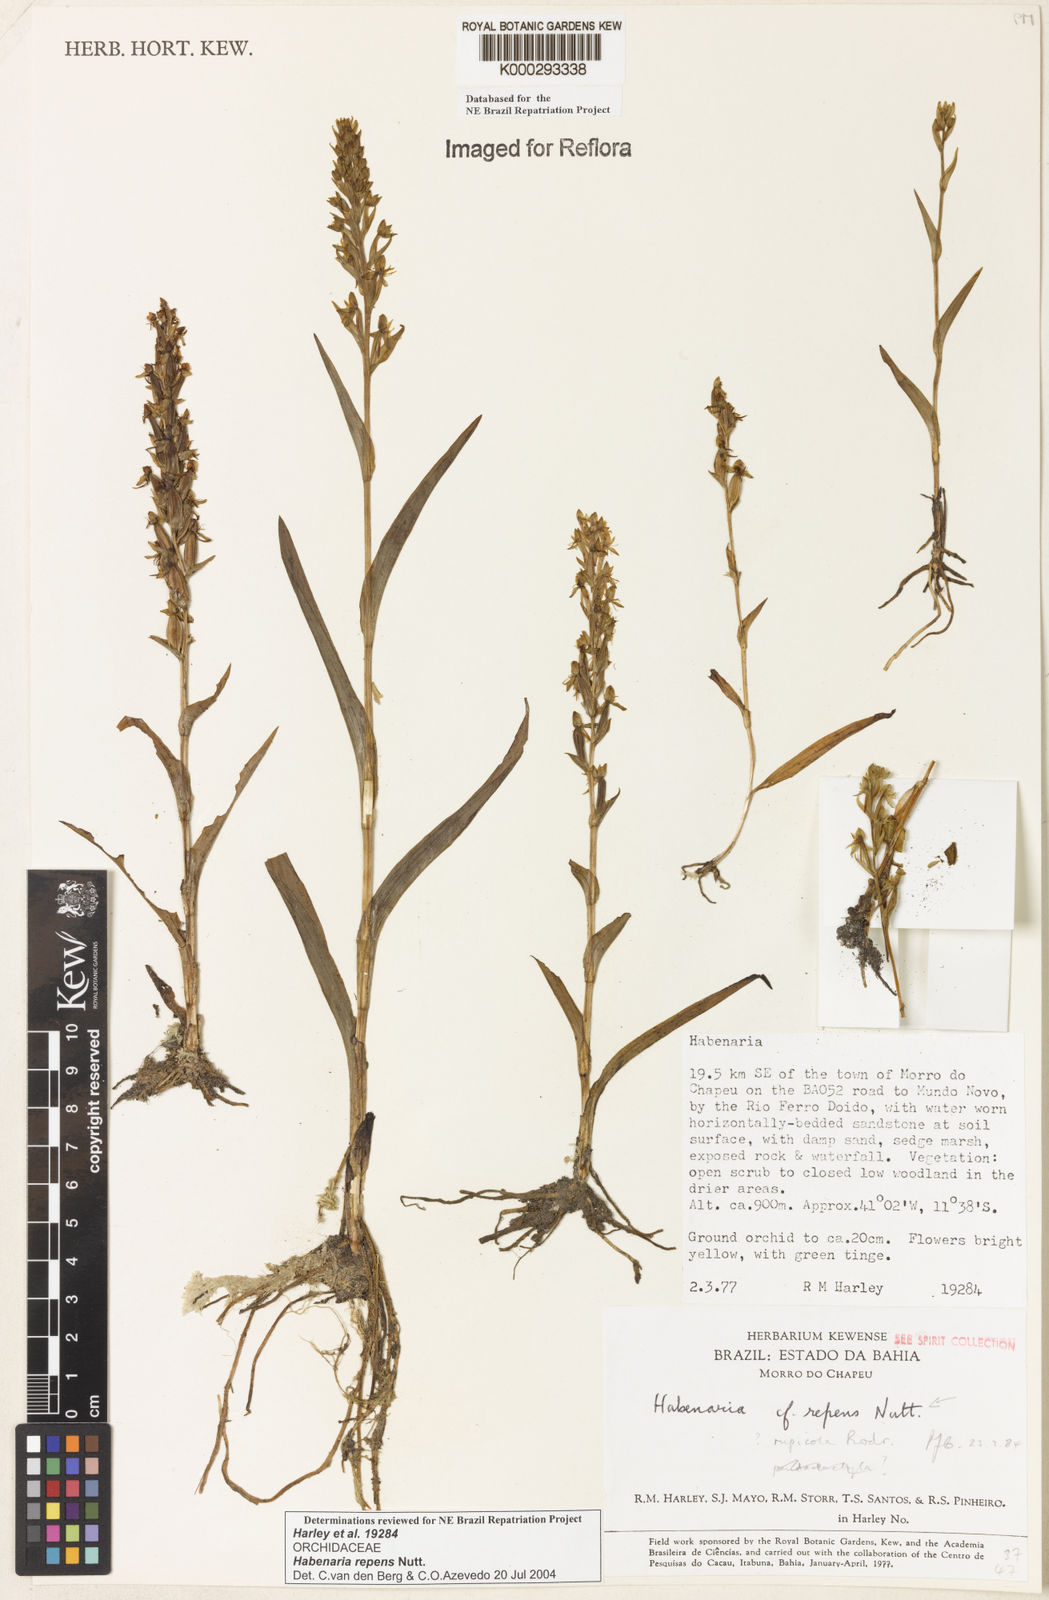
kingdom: Plantae
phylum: Tracheophyta
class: Liliopsida
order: Asparagales
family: Orchidaceae
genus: Habenaria
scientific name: Habenaria repens
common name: Water orchid
